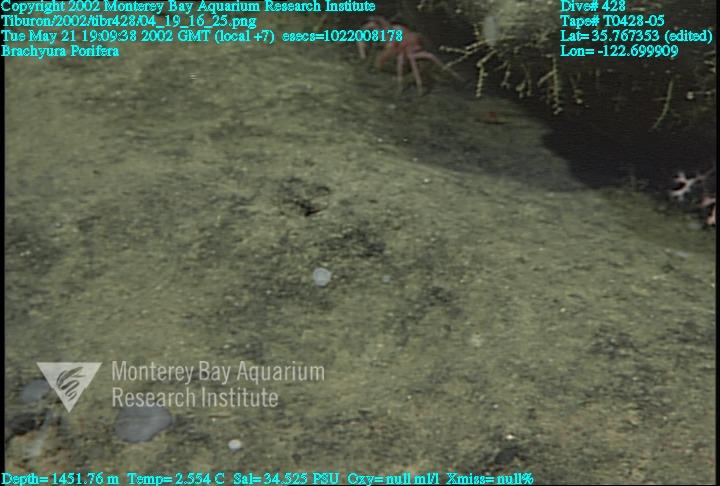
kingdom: Animalia
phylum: Porifera
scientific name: Porifera
